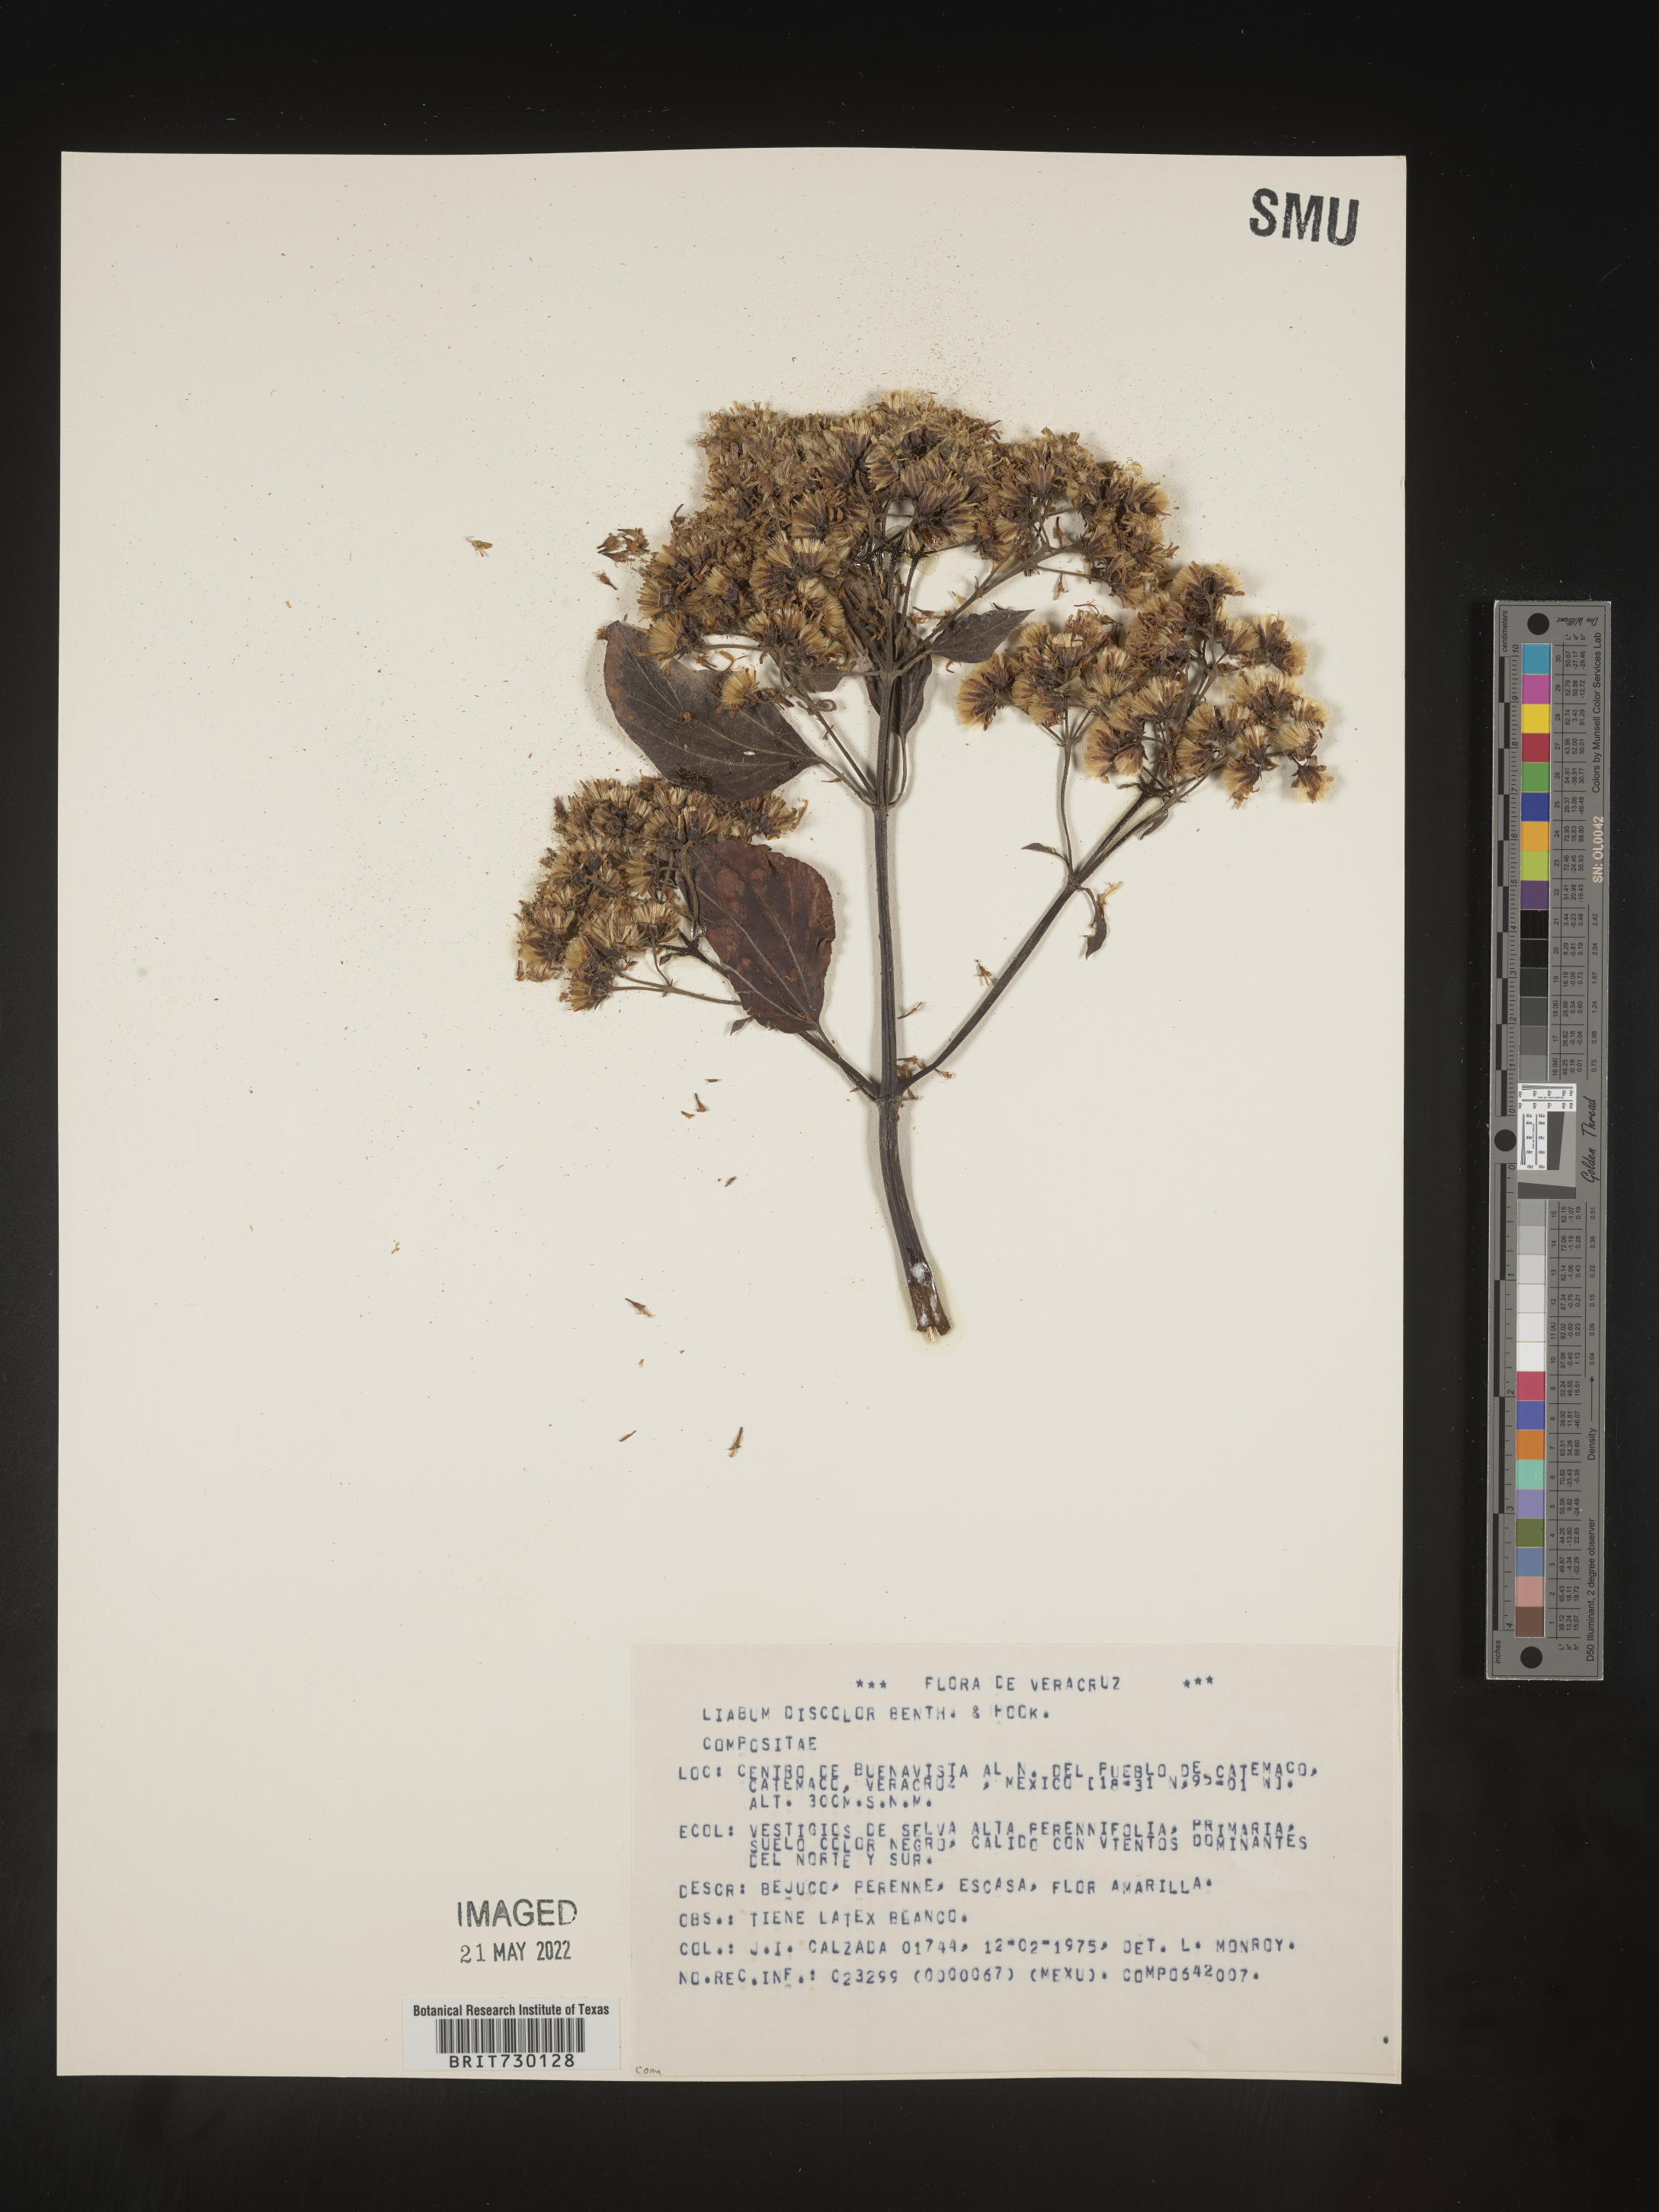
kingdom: Plantae
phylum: Tracheophyta
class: Magnoliopsida
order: Asterales
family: Asteraceae
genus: Liabum
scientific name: Liabum
